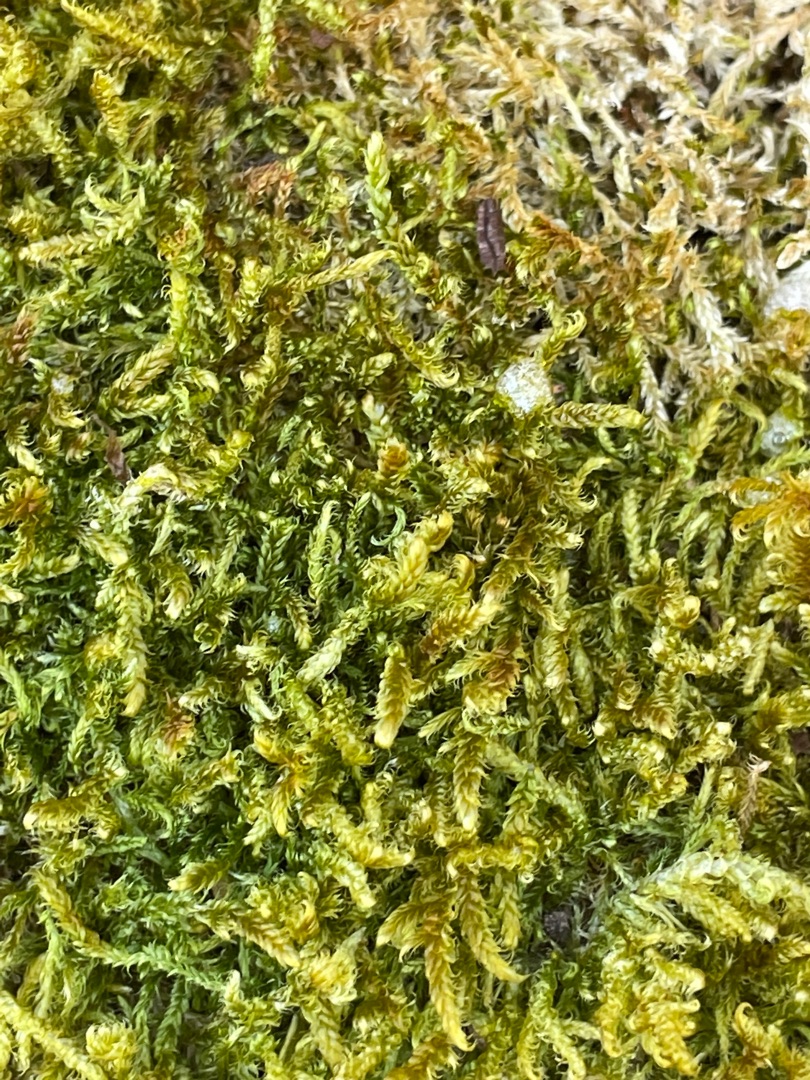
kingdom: Plantae
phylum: Bryophyta
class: Bryopsida
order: Hypnales
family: Hypnaceae
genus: Hypnum
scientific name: Hypnum cupressiforme
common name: Almindelig cypresmos
